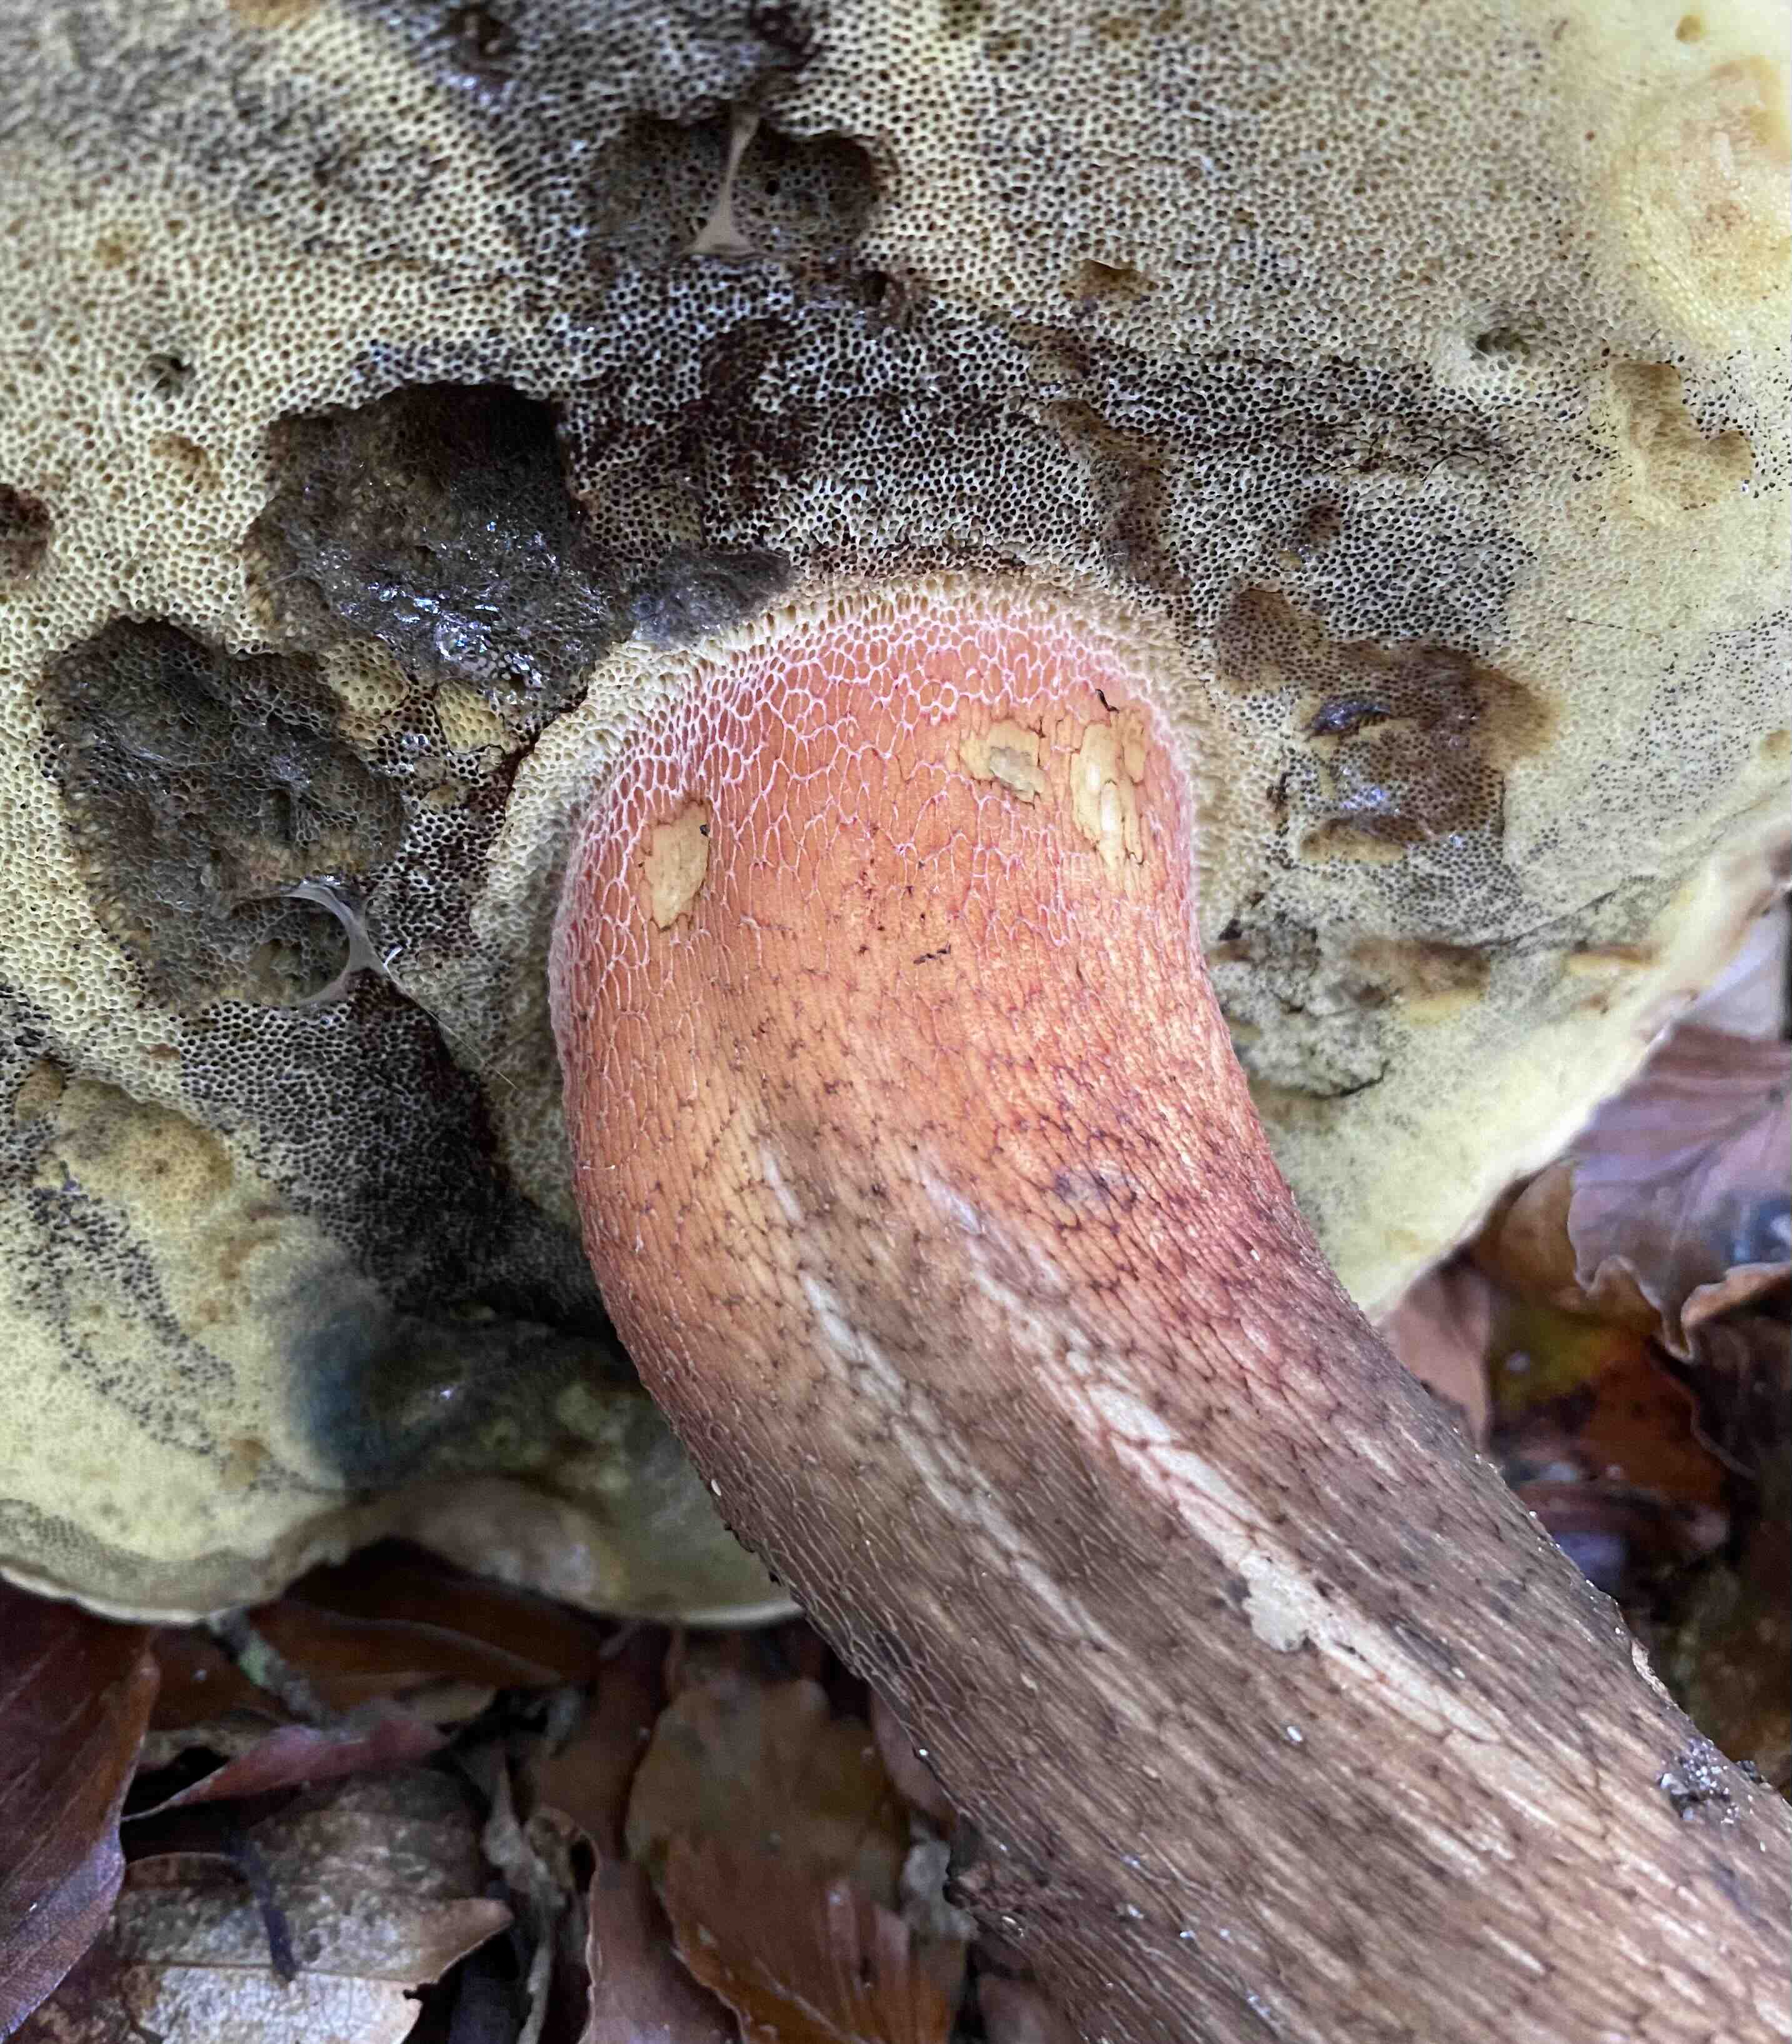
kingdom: Fungi
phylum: Basidiomycota
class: Agaricomycetes
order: Boletales
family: Boletaceae
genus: Caloboletus
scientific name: Caloboletus calopus
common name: skønfodet rørhat
